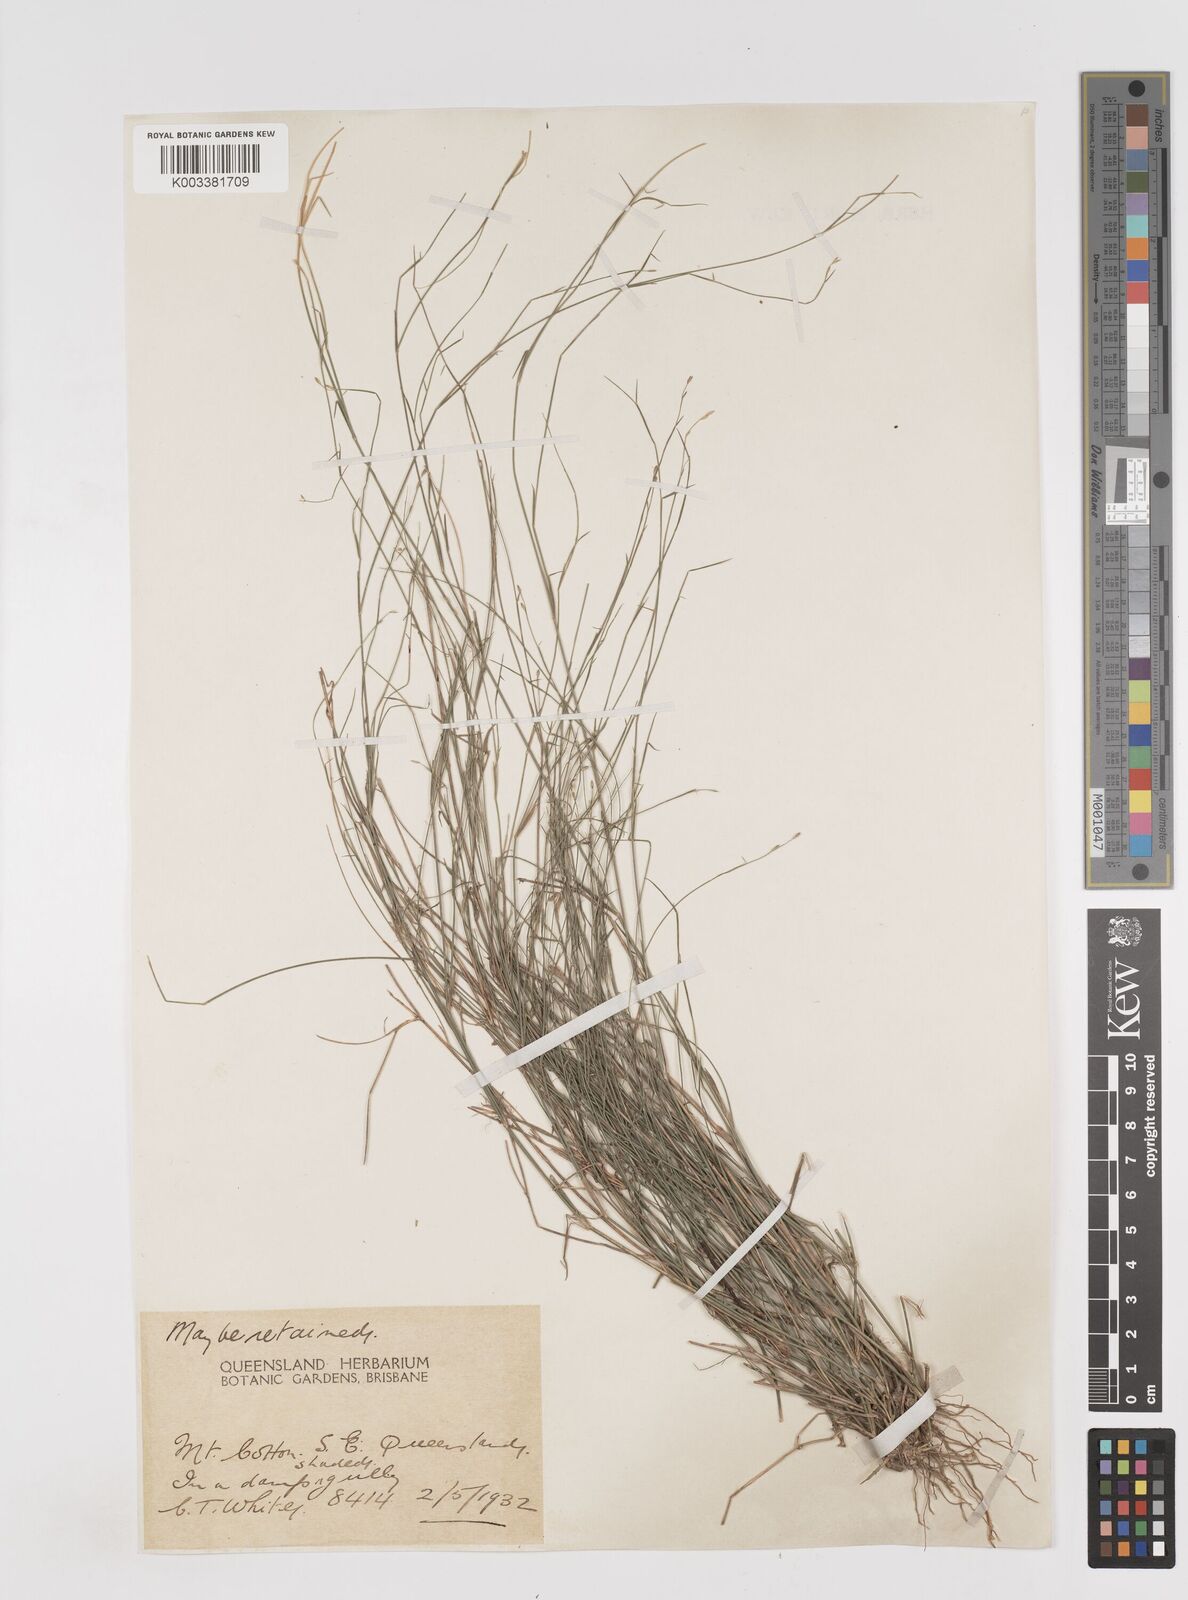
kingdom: Plantae
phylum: Tracheophyta
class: Liliopsida
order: Poales
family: Poaceae
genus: Entolasia
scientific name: Entolasia stricta
